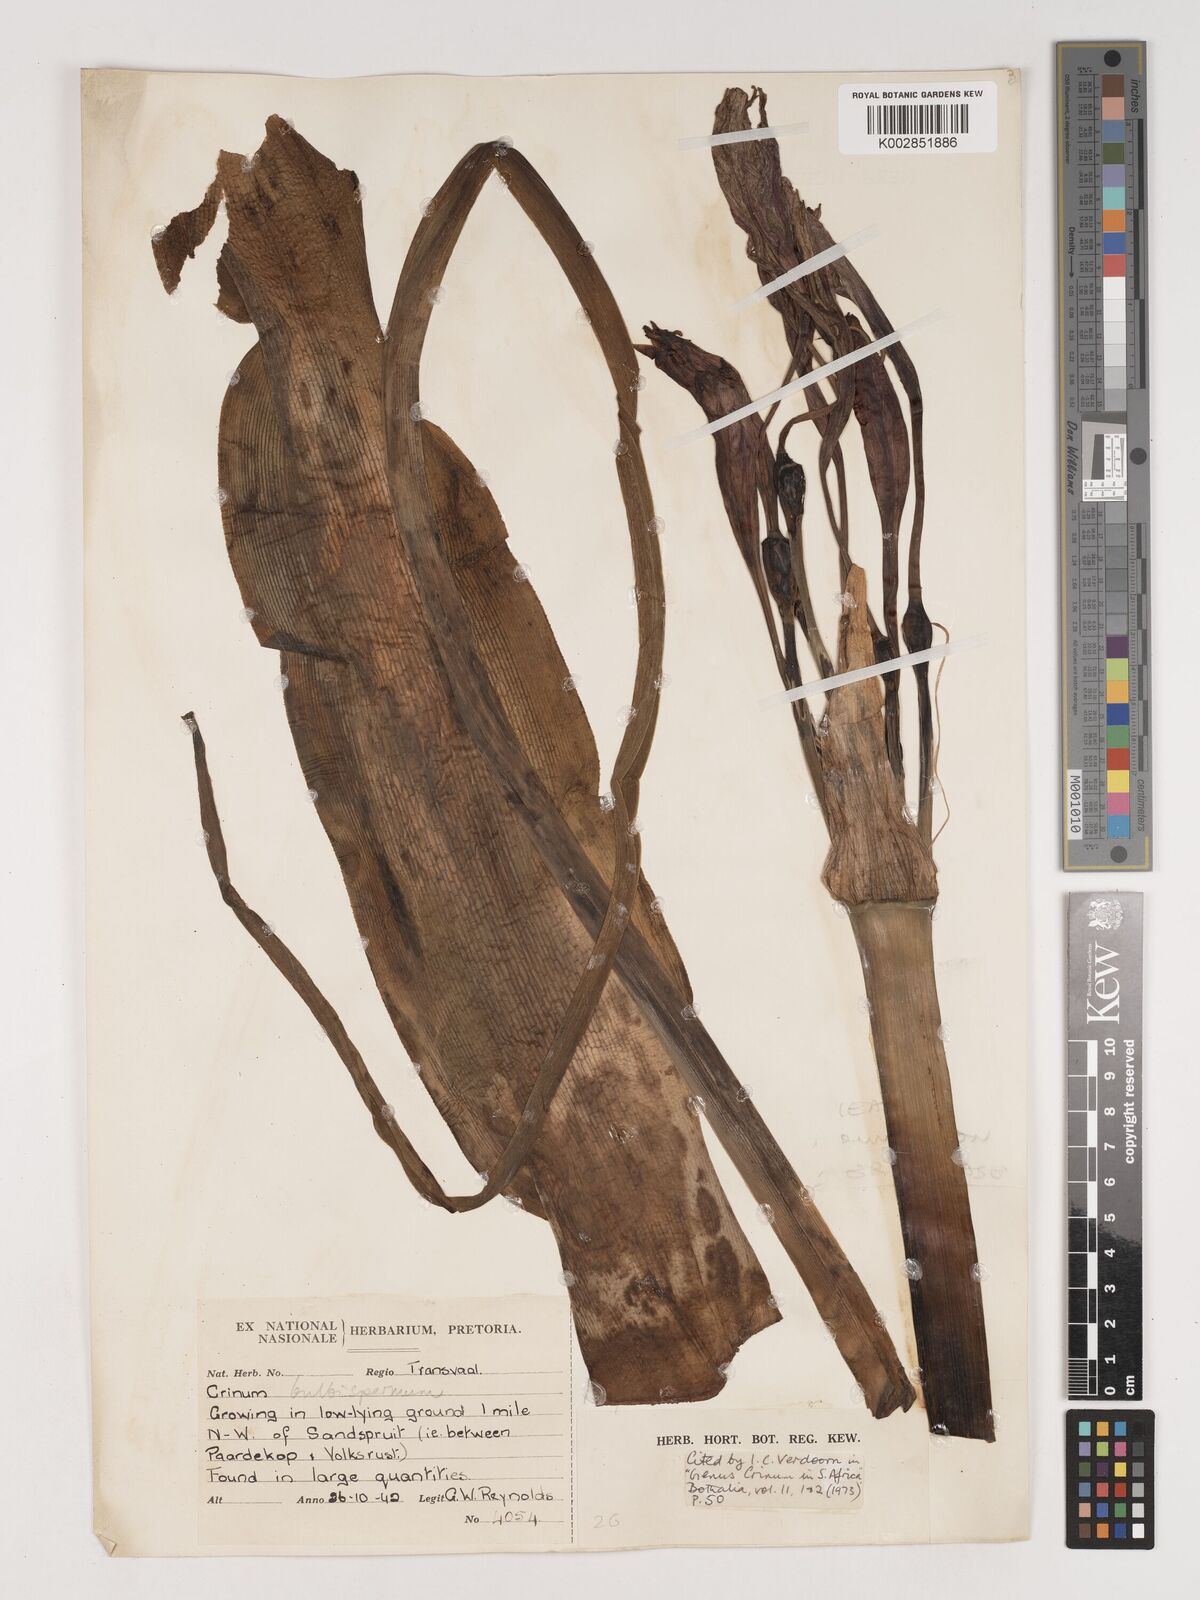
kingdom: Plantae
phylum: Tracheophyta
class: Liliopsida
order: Asparagales
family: Amaryllidaceae
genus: Crinum
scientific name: Crinum bulbispermum
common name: Hardy swamplily
